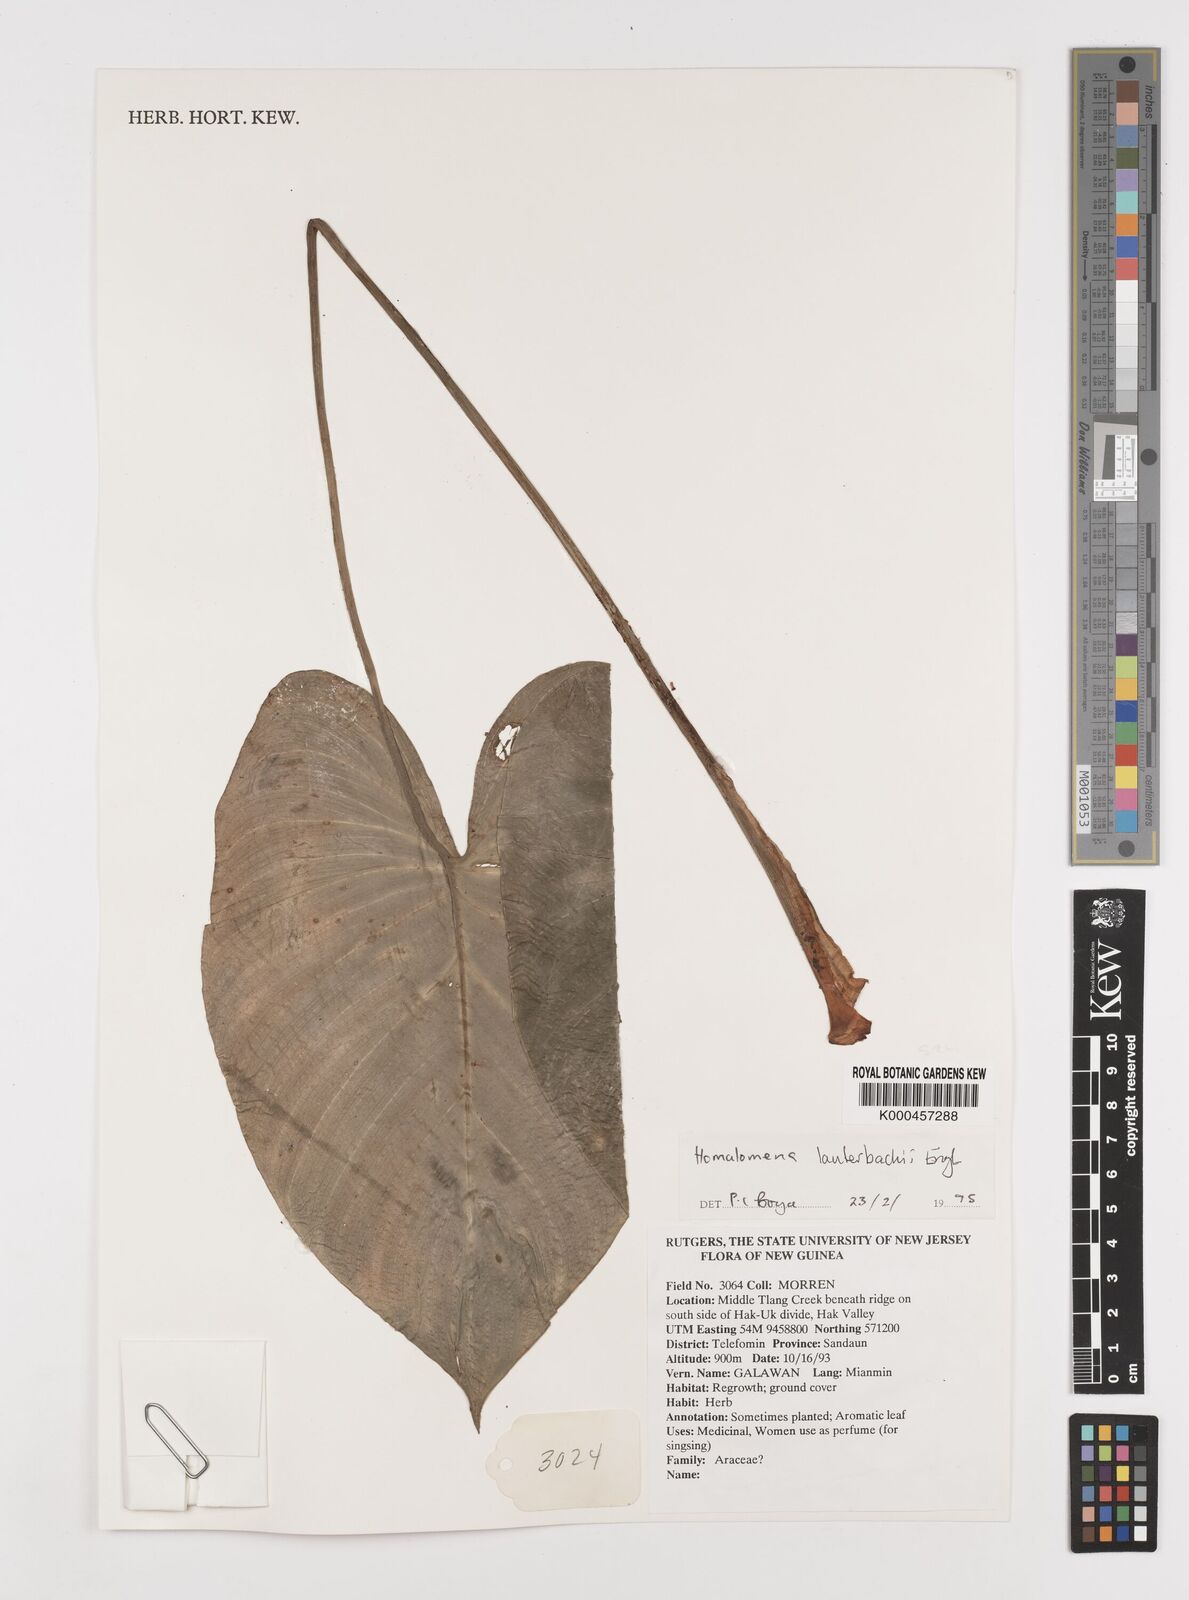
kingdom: Plantae
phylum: Tracheophyta
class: Liliopsida
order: Alismatales
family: Araceae
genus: Homalomena
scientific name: Homalomena lauterbachii
